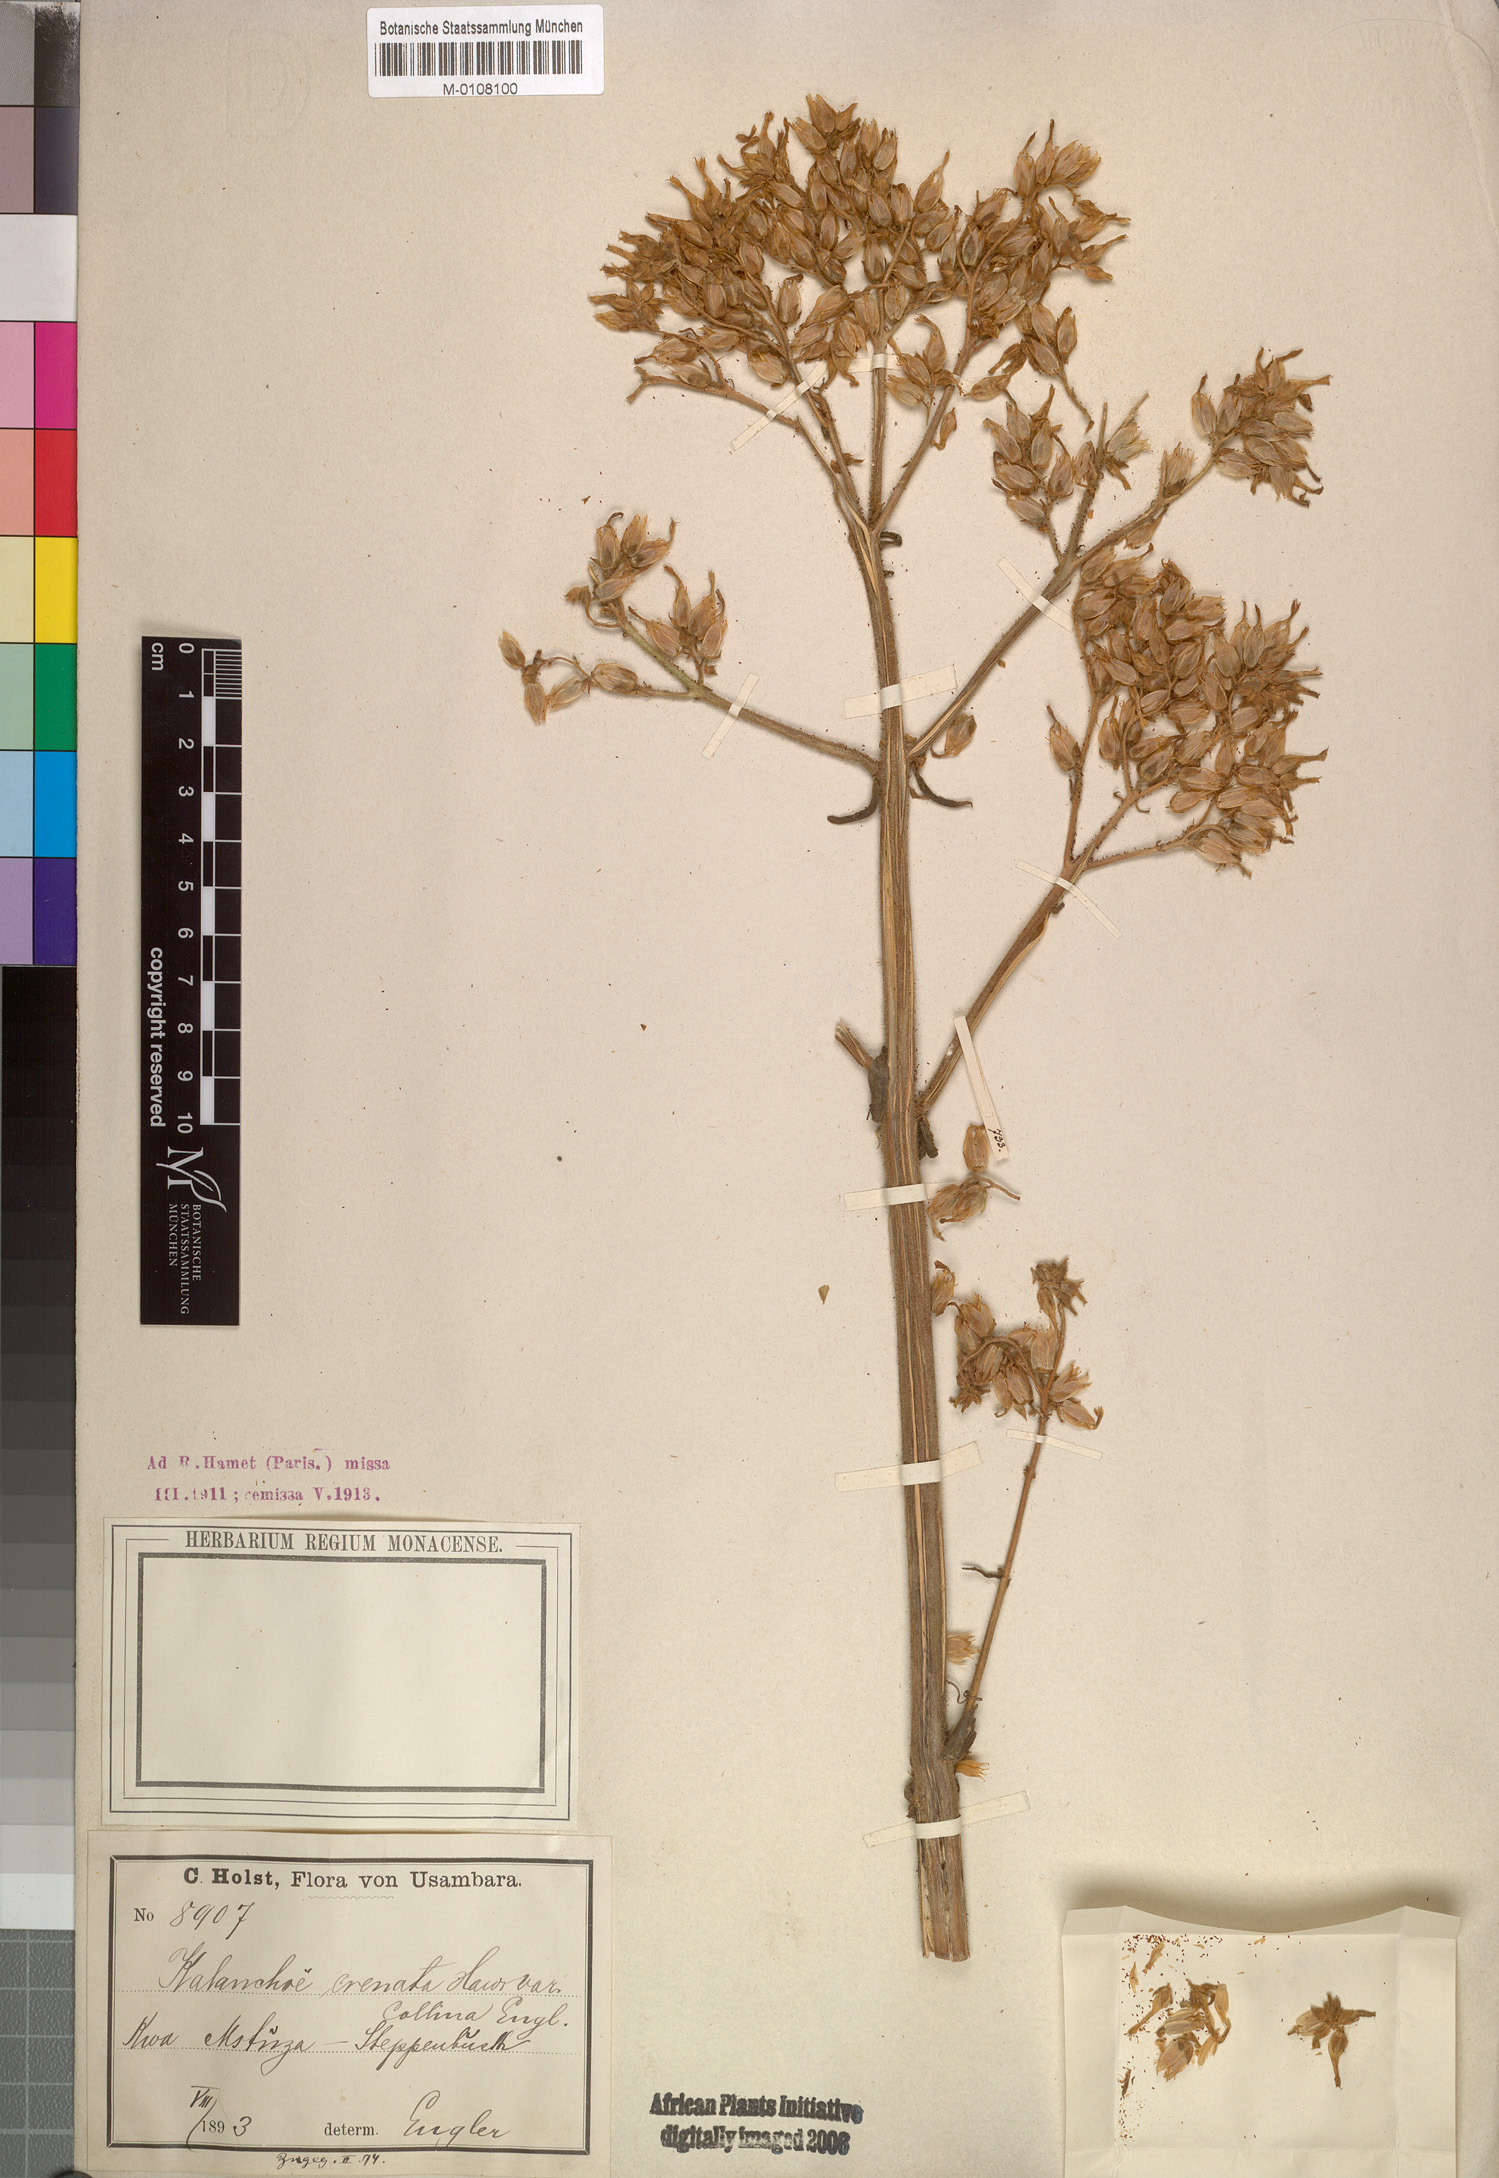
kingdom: Plantae
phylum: Tracheophyta
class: Magnoliopsida
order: Saxifragales
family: Crassulaceae
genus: Kalanchoe
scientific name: Kalanchoe lanceolata
